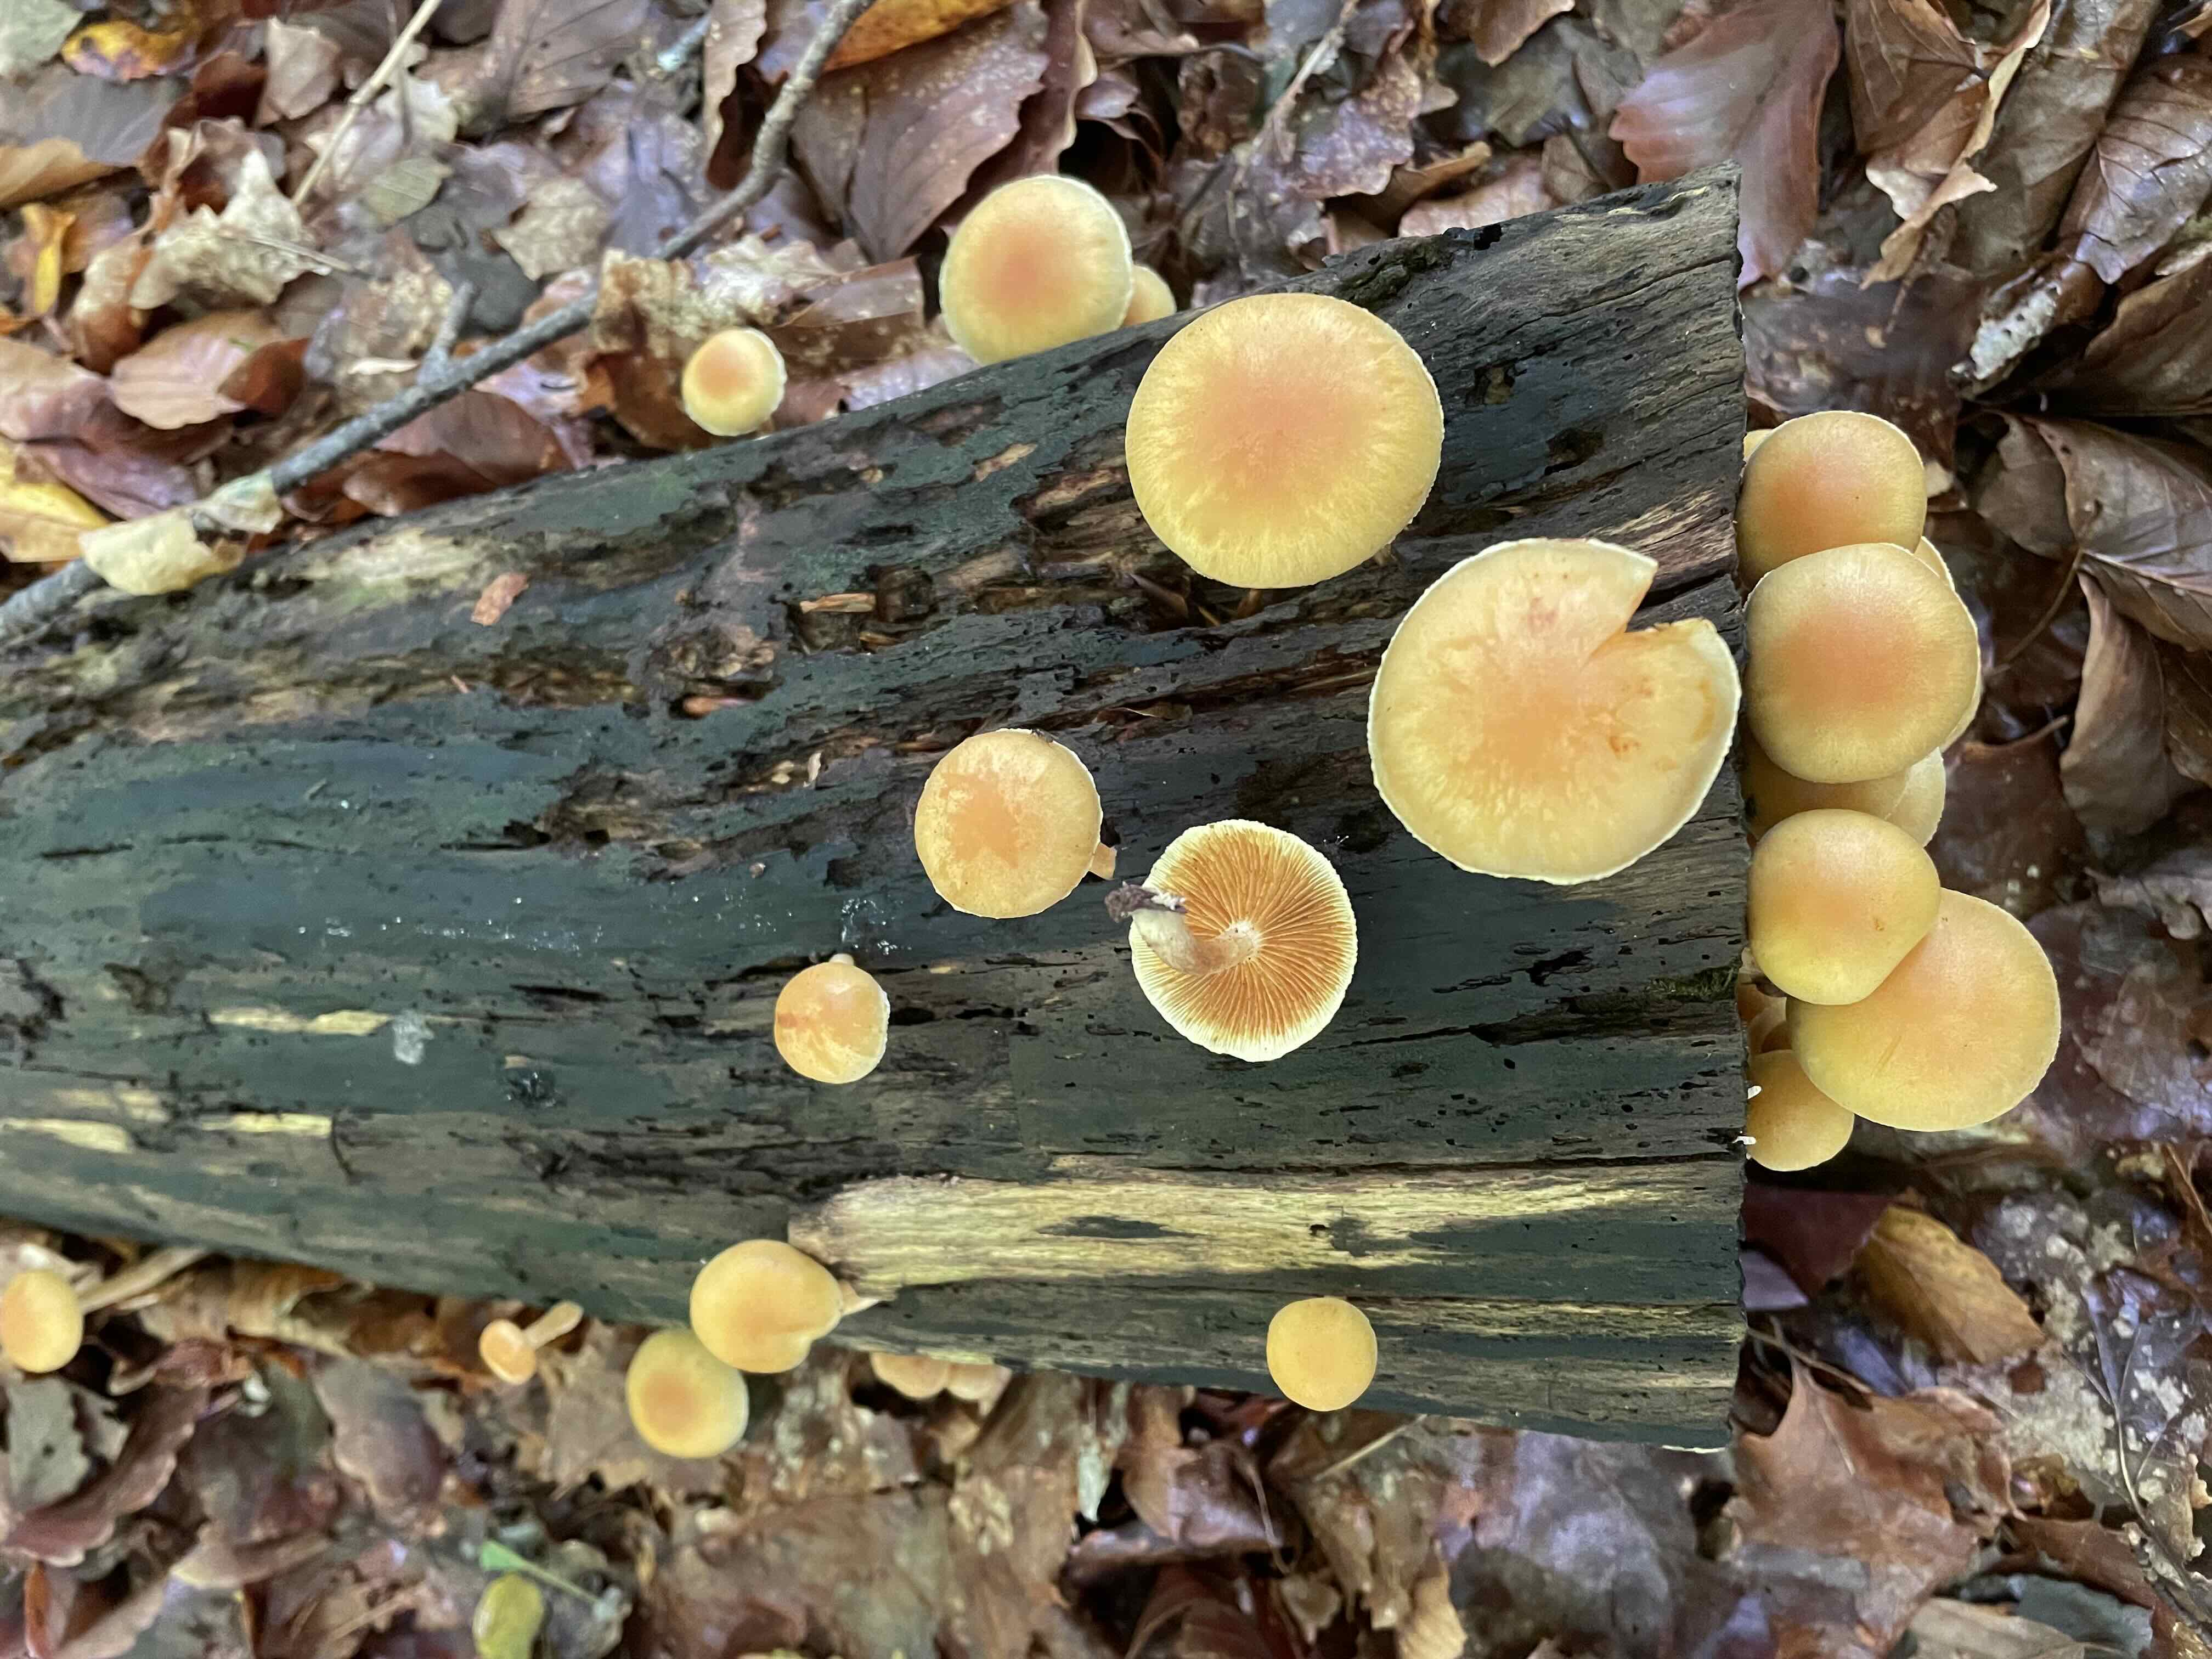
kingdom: Fungi
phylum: Basidiomycota
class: Agaricomycetes
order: Agaricales
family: Hymenogastraceae
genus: Gymnopilus
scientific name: Gymnopilus penetrans
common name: plettet flammehat
